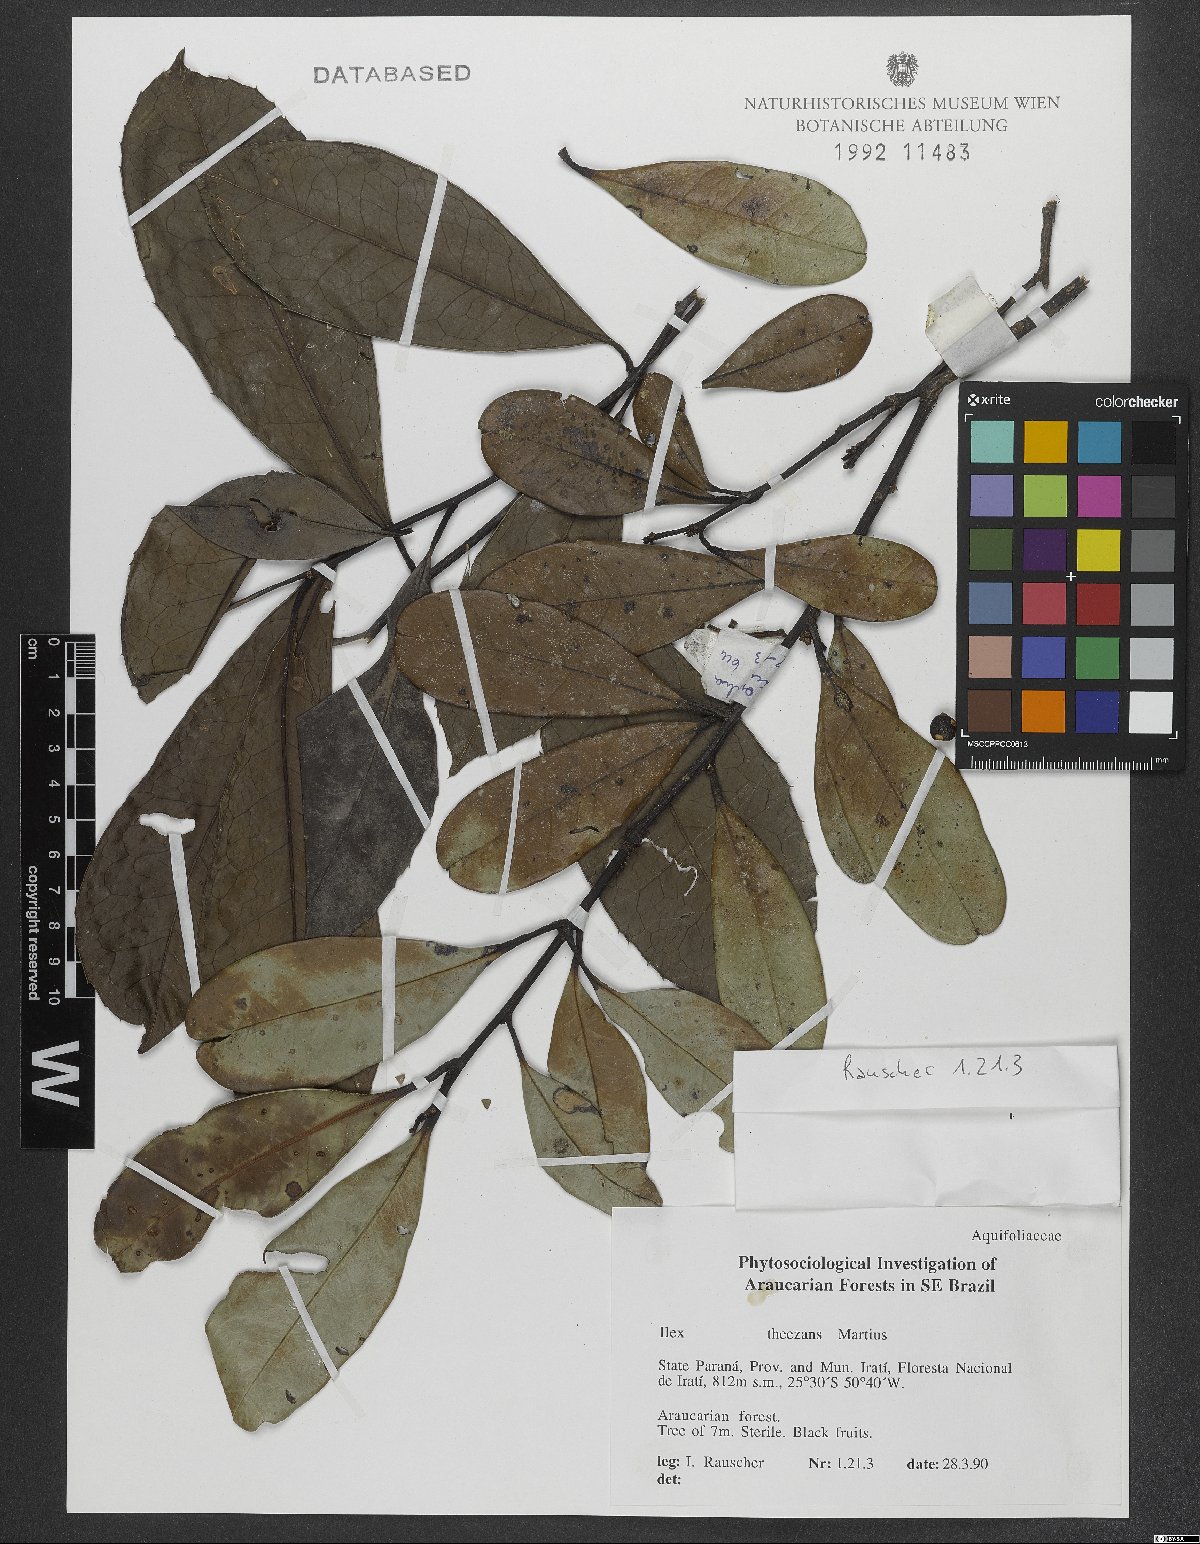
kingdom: Plantae
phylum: Tracheophyta
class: Magnoliopsida
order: Aquifoliales
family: Aquifoliaceae
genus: Ilex
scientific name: Ilex theezans
